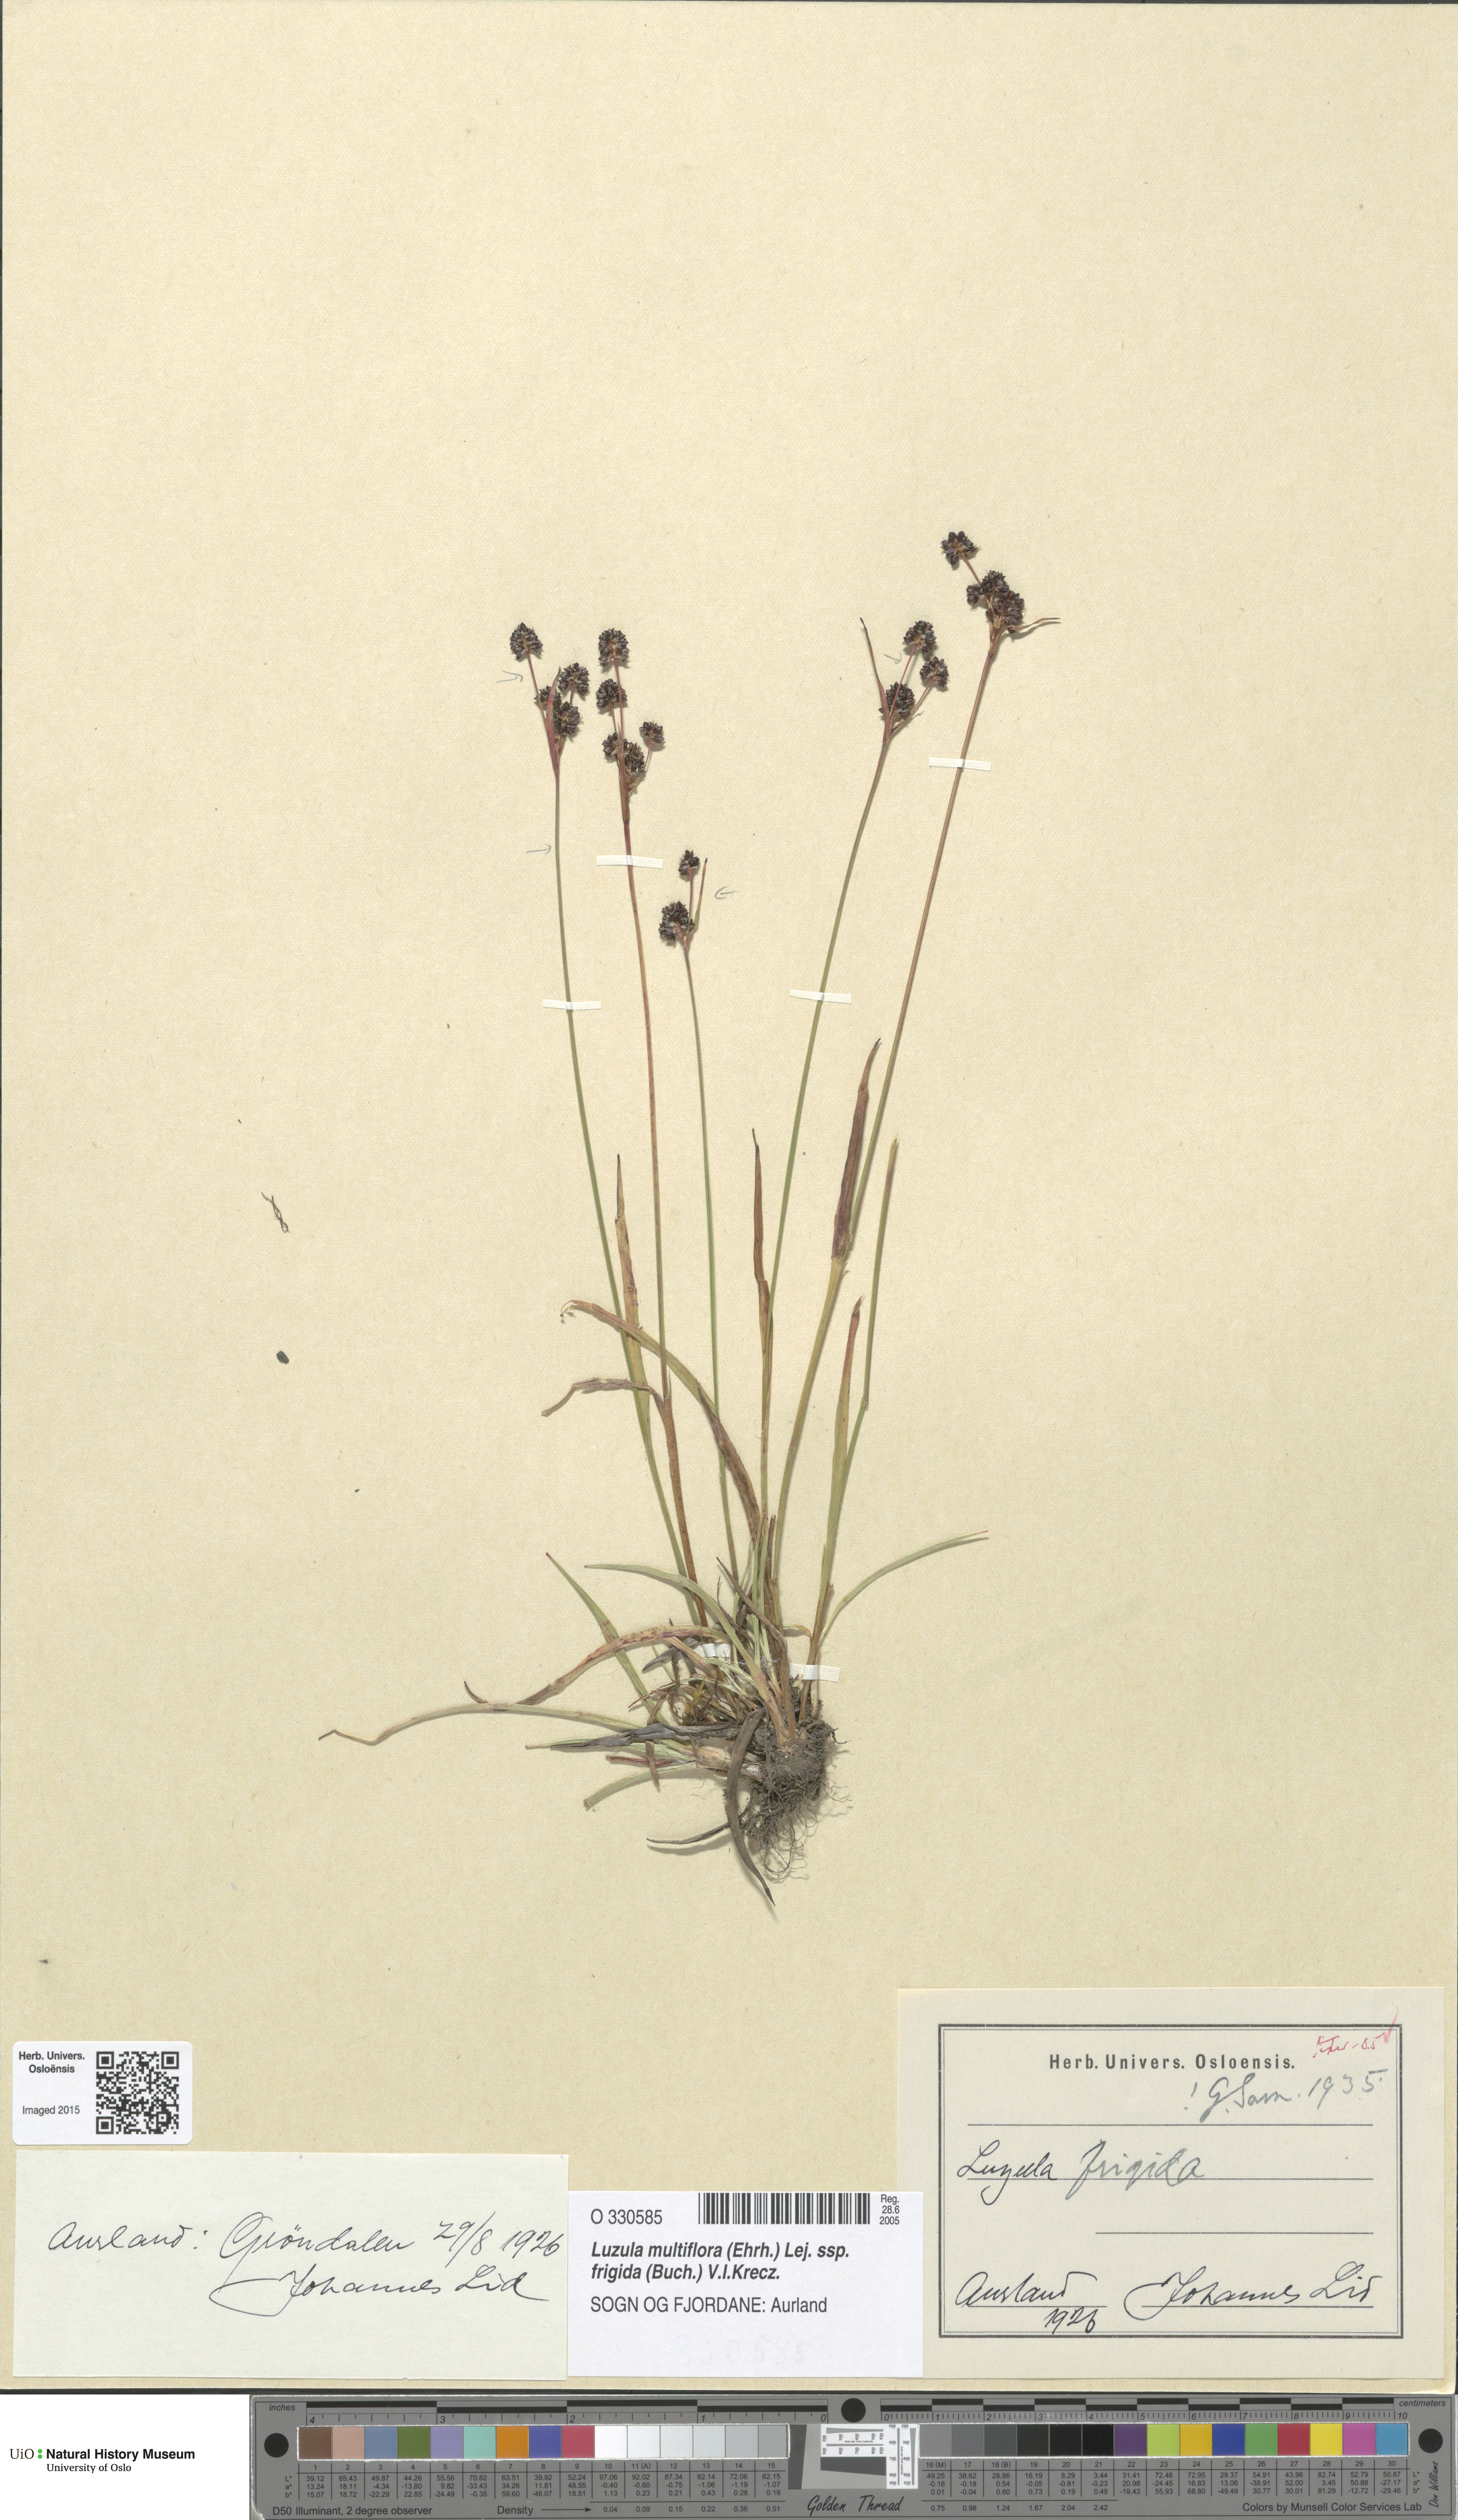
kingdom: Plantae
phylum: Tracheophyta
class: Liliopsida
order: Poales
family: Juncaceae
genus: Luzula
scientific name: Luzula multiflora
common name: Heath wood-rush
